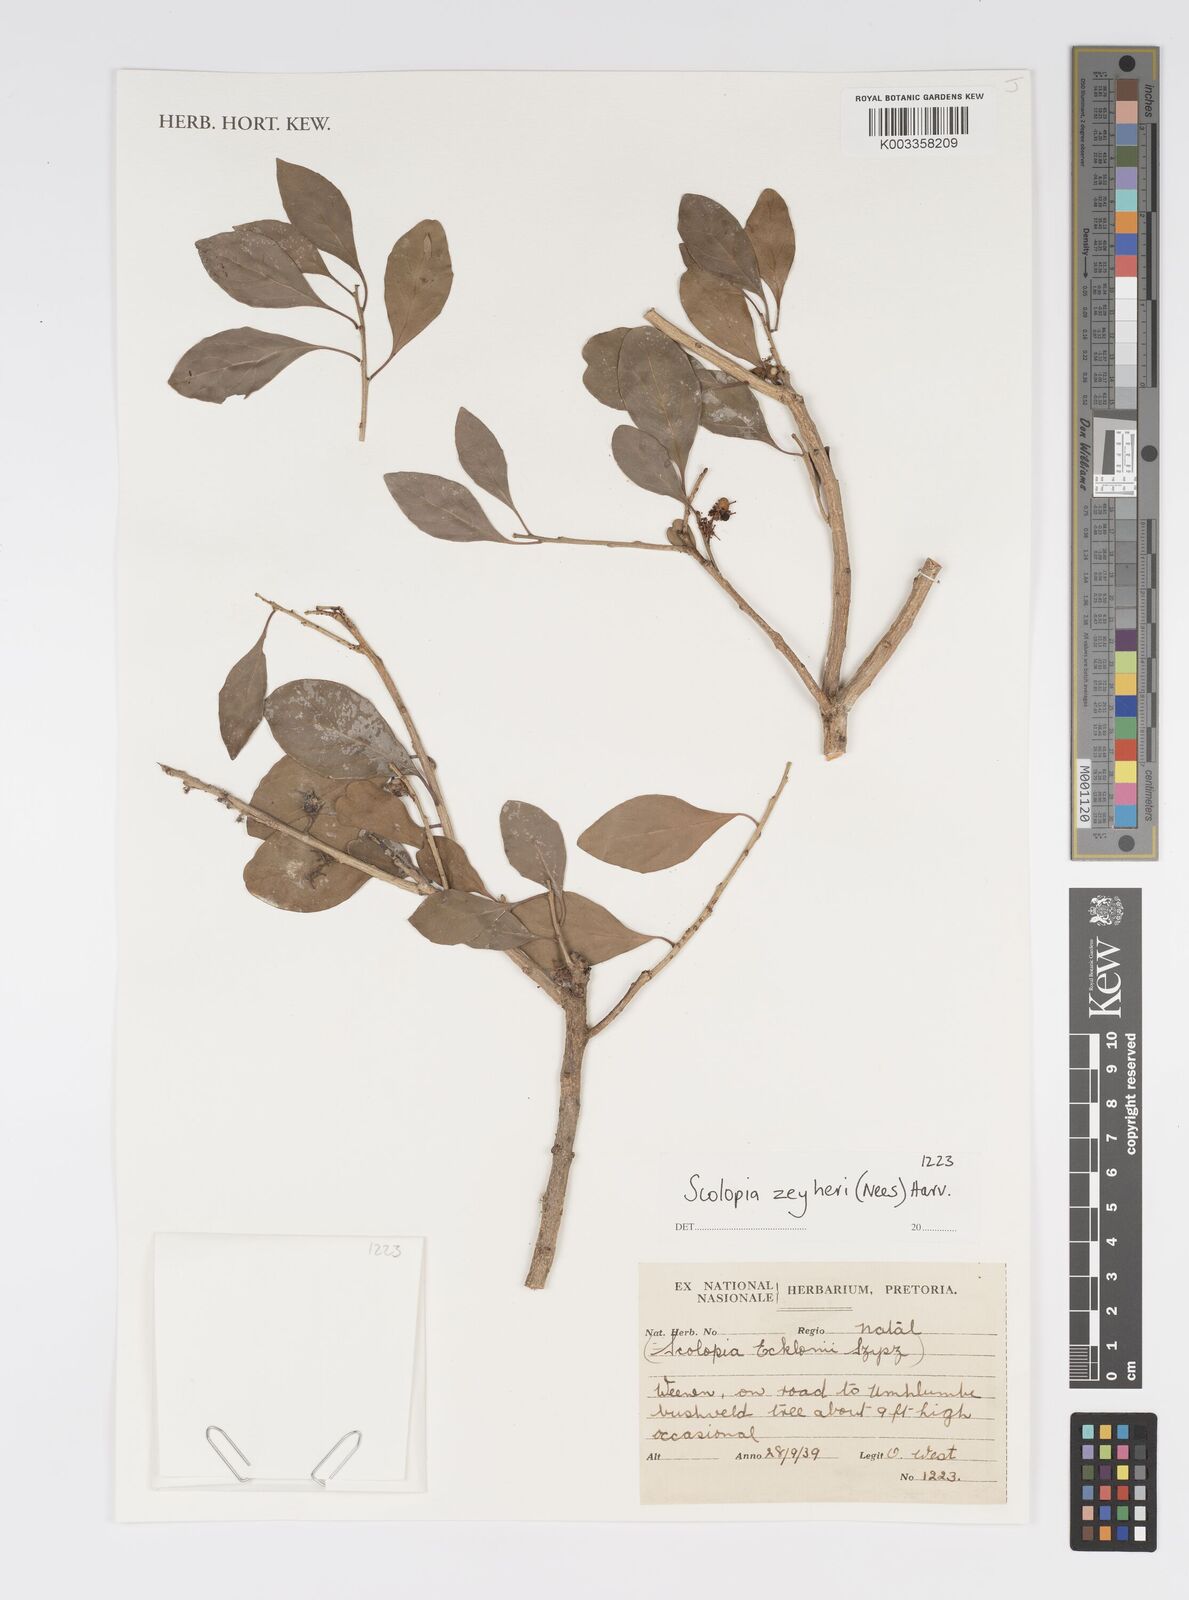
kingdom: Plantae
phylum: Tracheophyta
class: Magnoliopsida
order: Malpighiales
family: Salicaceae
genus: Scolopia
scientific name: Scolopia zeyheri
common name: Thorn pear
